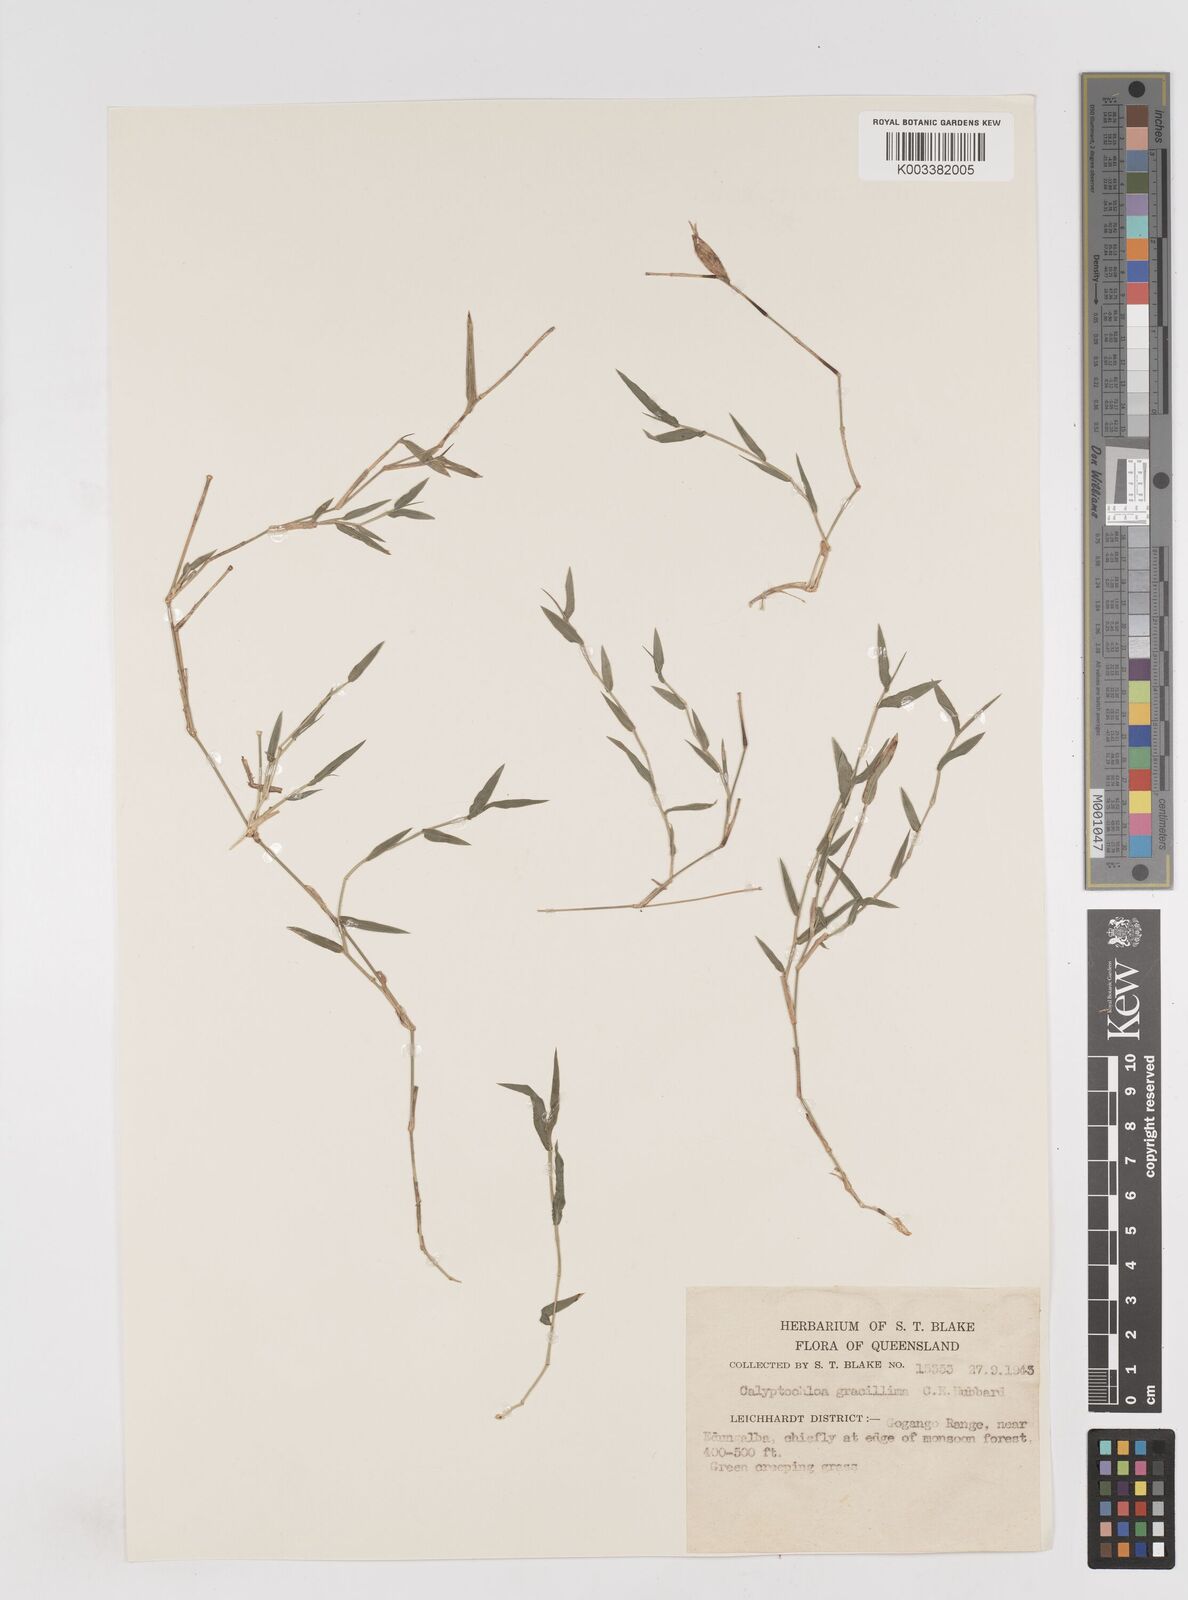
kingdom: Plantae
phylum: Tracheophyta
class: Liliopsida
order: Poales
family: Poaceae
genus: Calyptochloa
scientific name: Calyptochloa gracillima
